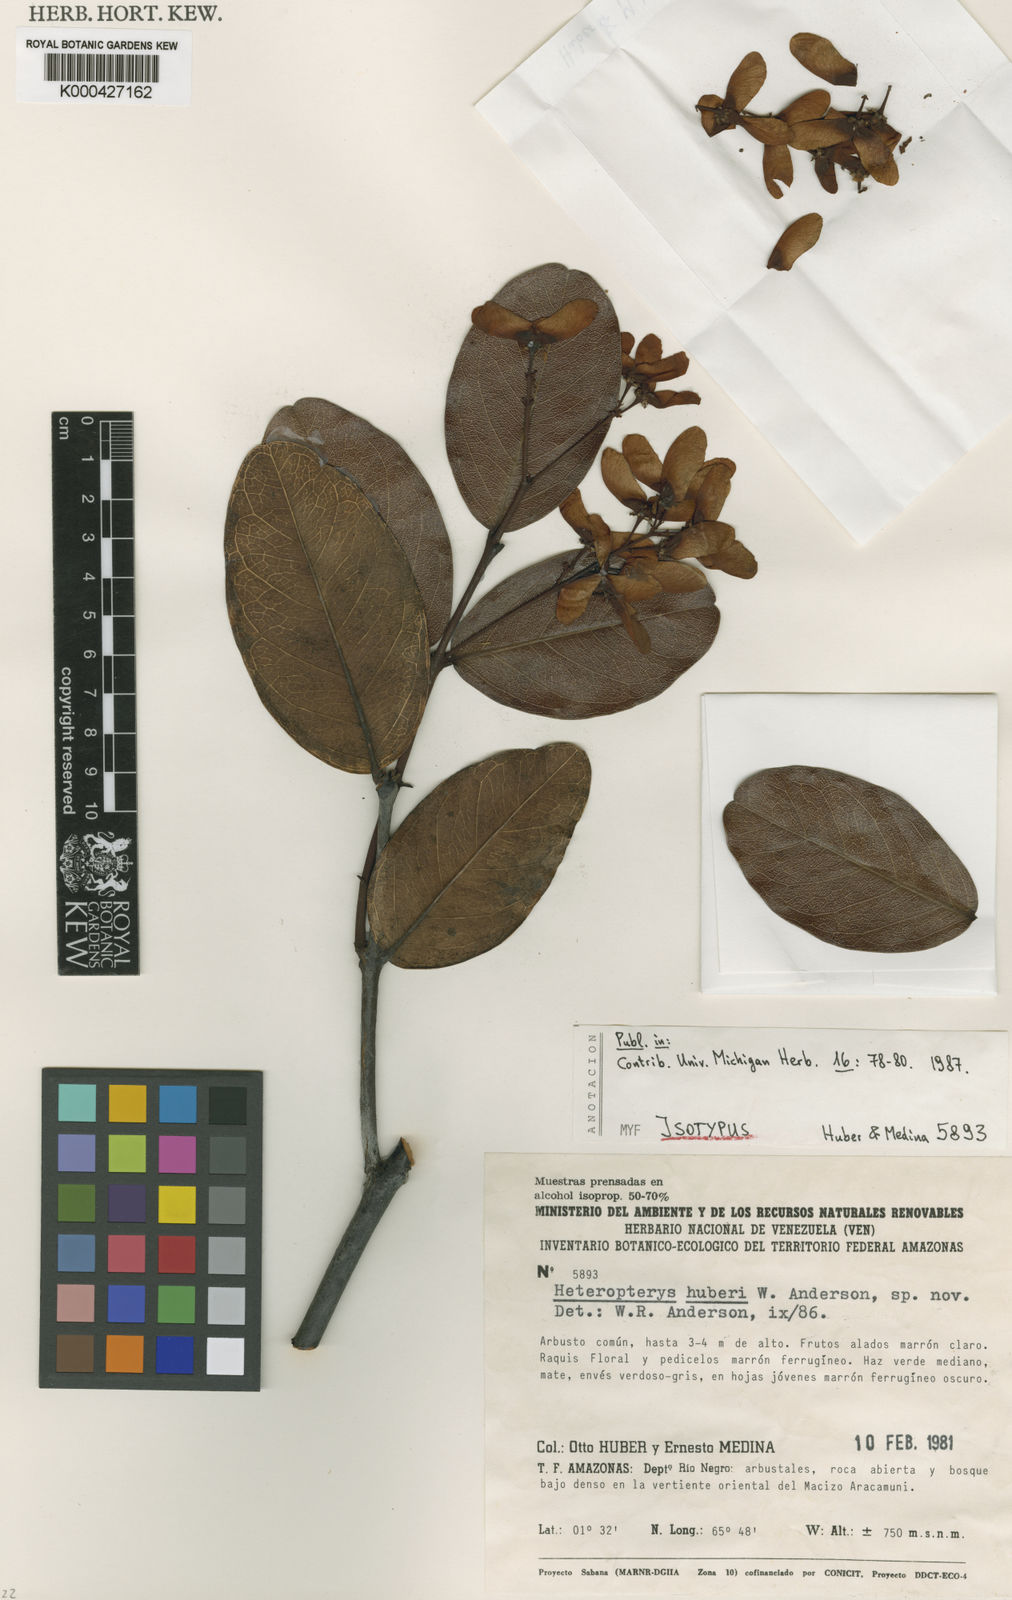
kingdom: Plantae
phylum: Tracheophyta
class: Magnoliopsida
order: Malpighiales
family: Malpighiaceae
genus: Heteropterys
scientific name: Heteropterys huberi
